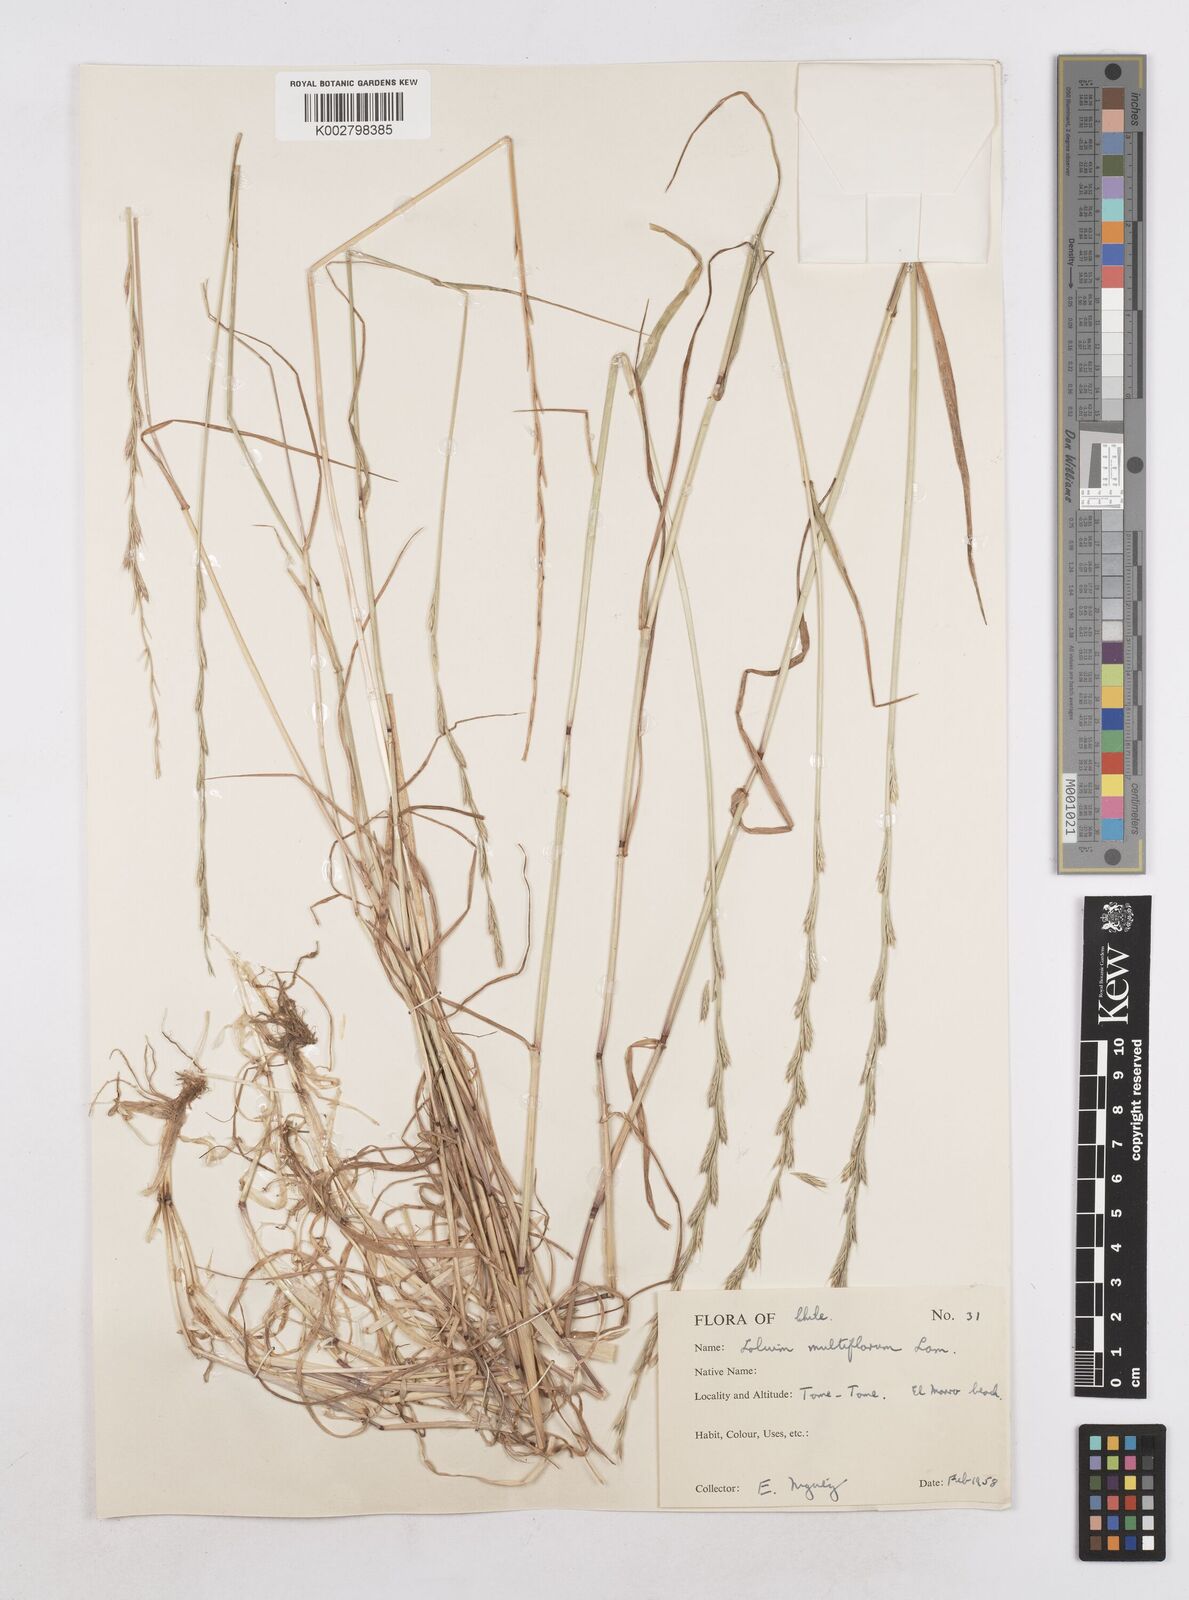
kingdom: Plantae
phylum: Tracheophyta
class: Liliopsida
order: Poales
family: Poaceae
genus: Lolium
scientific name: Lolium multiflorum
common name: Annual ryegrass
